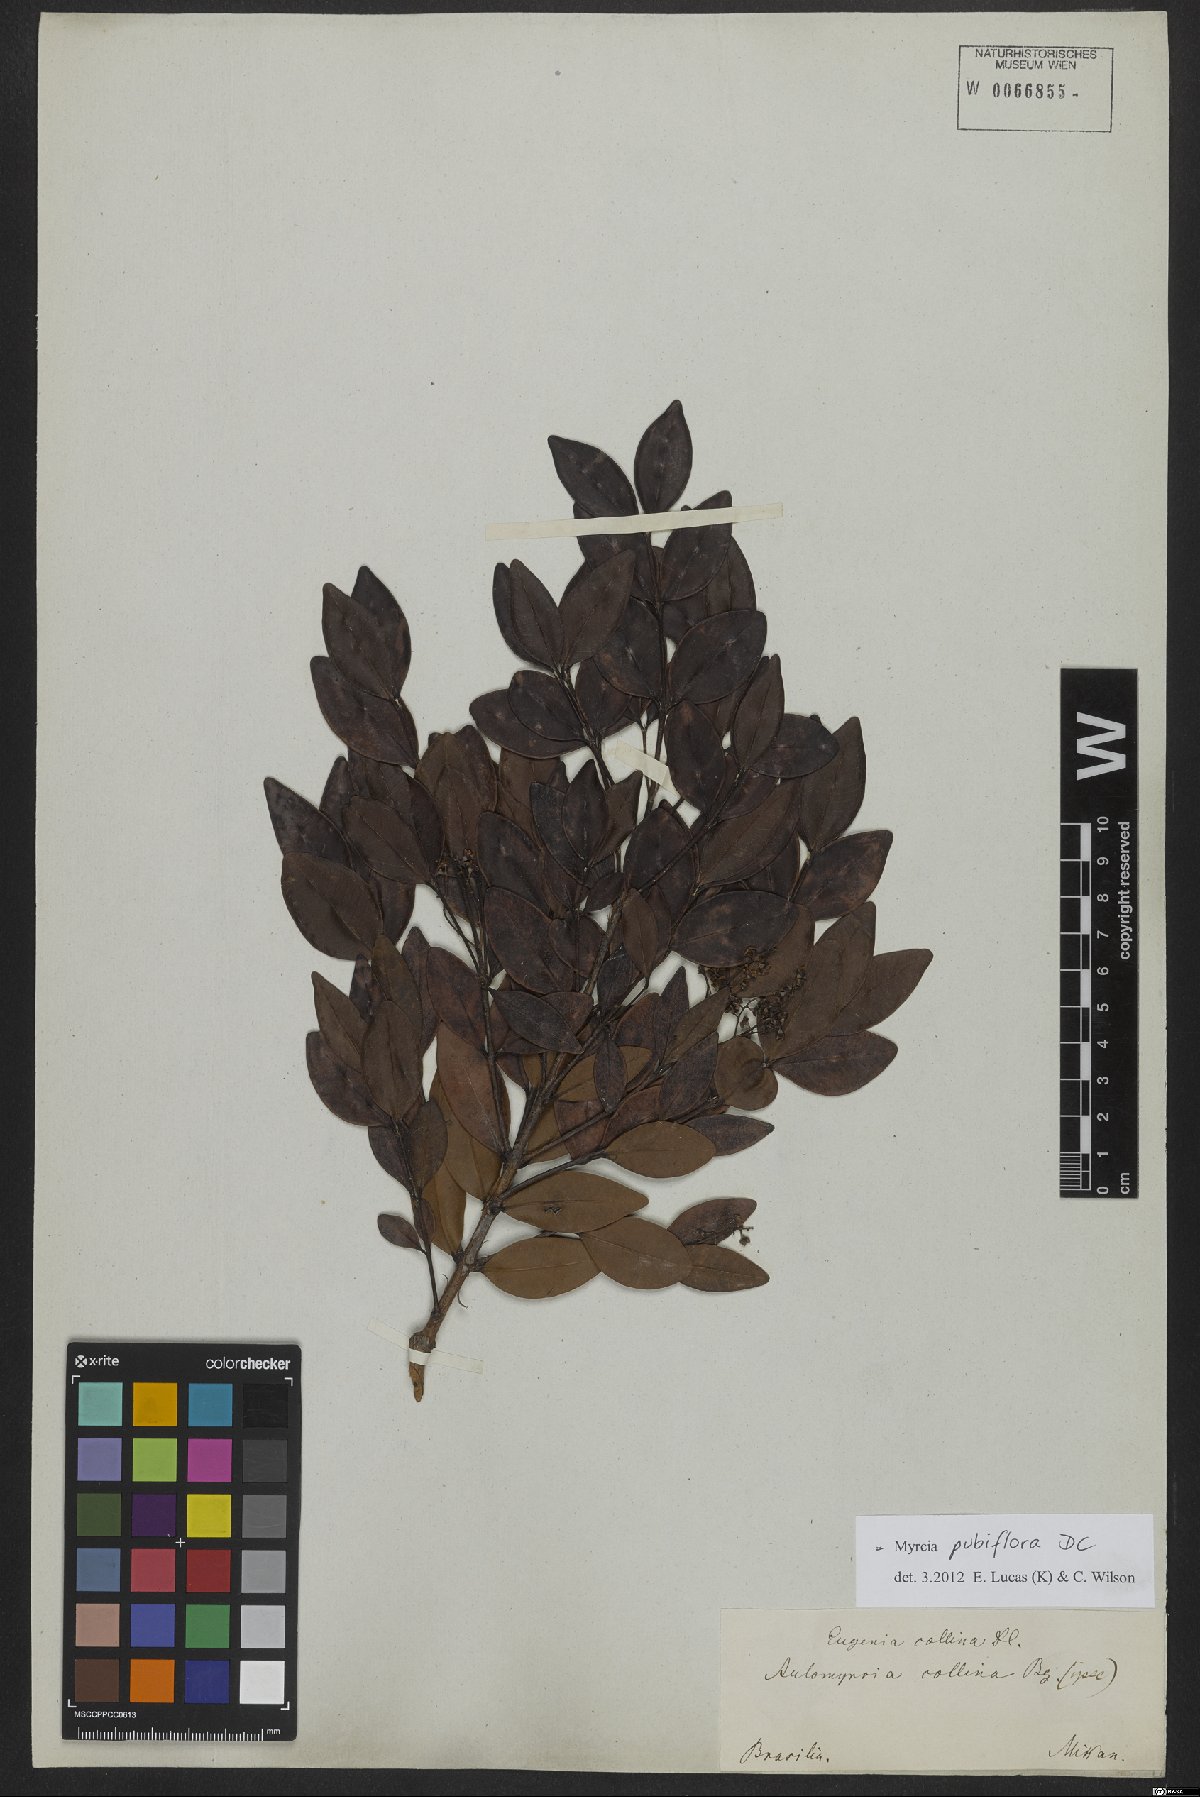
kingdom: Plantae
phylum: Tracheophyta
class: Magnoliopsida
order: Myrtales
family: Myrtaceae
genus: Myrcia
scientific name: Myrcia pubiflora
